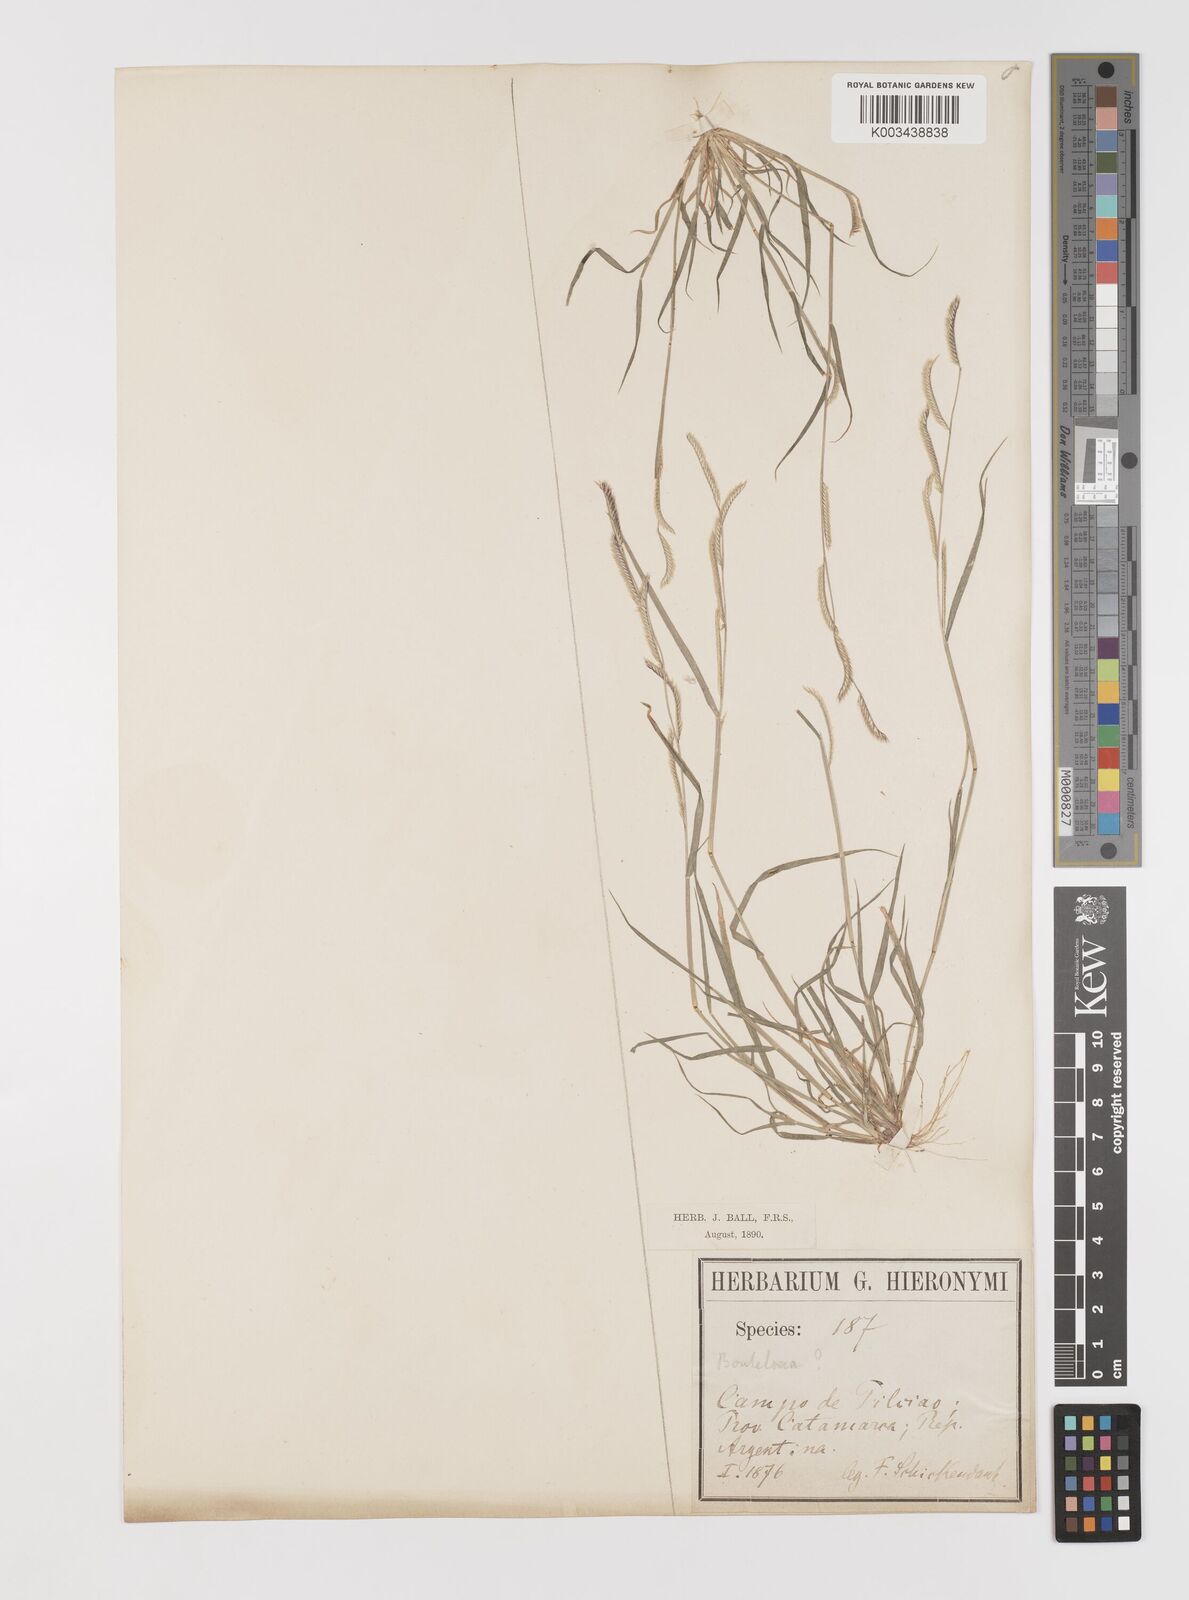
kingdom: Plantae
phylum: Tracheophyta
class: Liliopsida
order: Poales
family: Poaceae
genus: Bouteloua
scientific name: Bouteloua barbata
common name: Six-weeks grama
